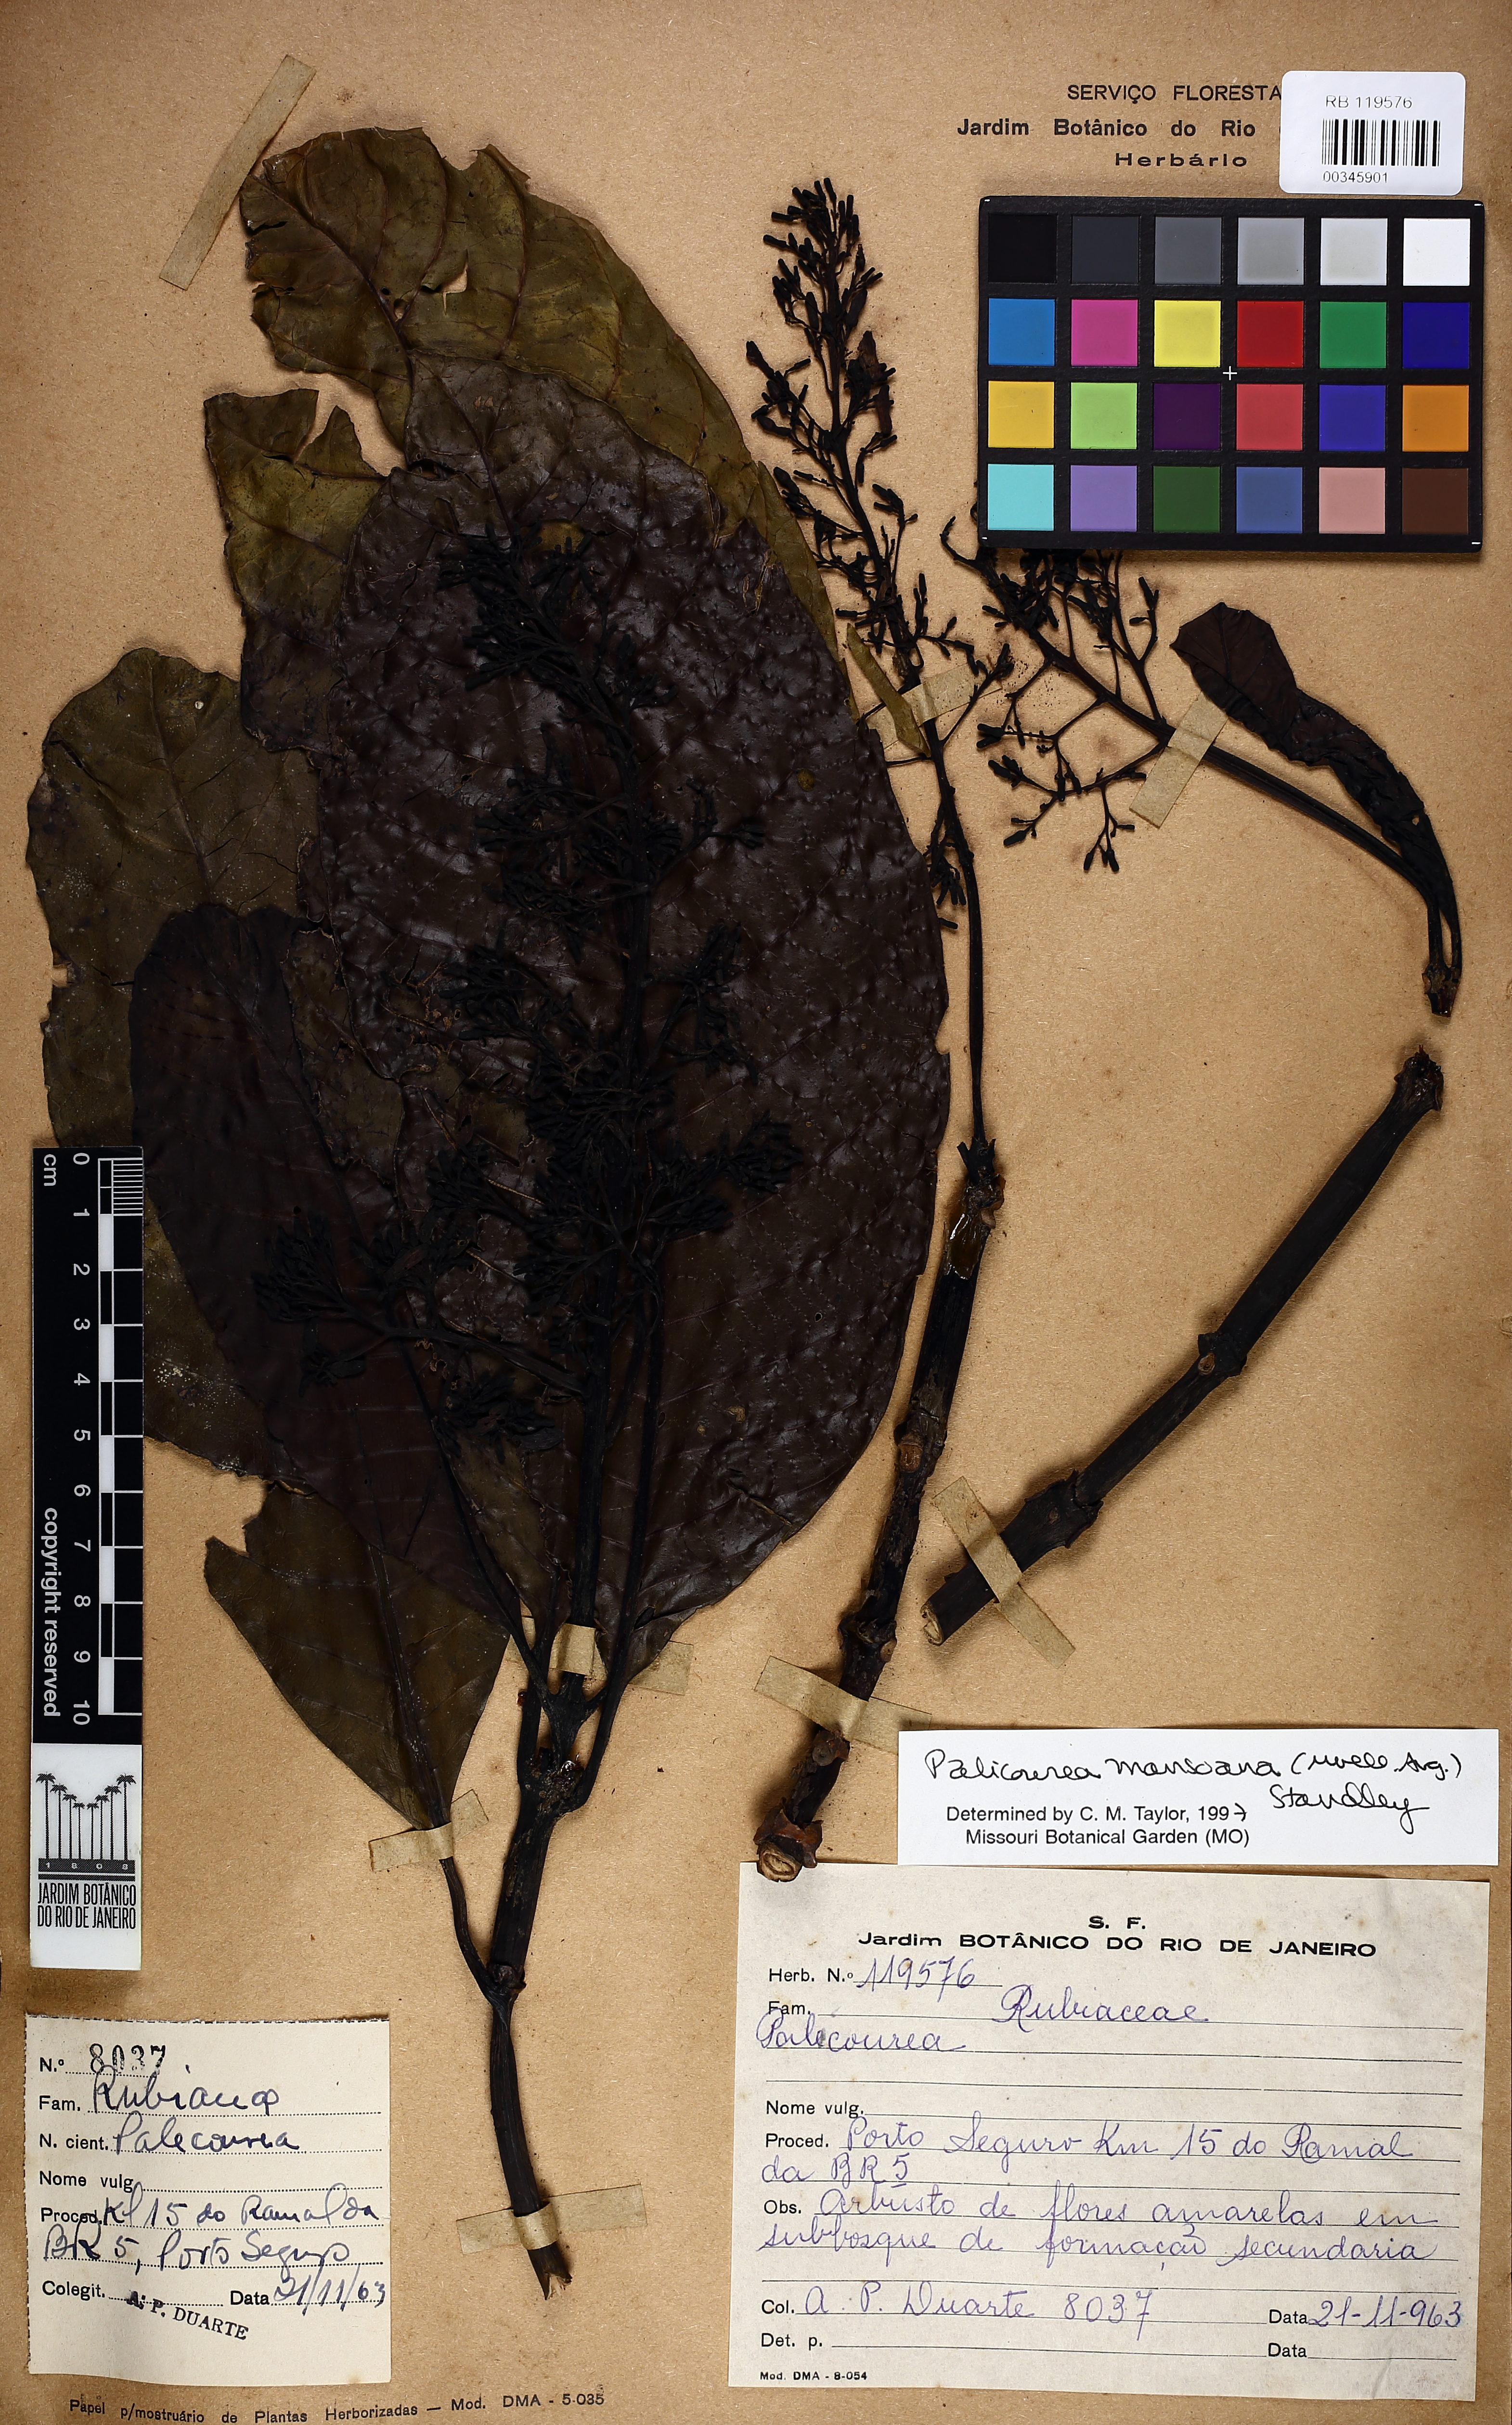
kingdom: Plantae
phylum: Tracheophyta
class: Magnoliopsida
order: Gentianales
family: Rubiaceae
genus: Palicourea
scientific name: Palicourea mansoana
